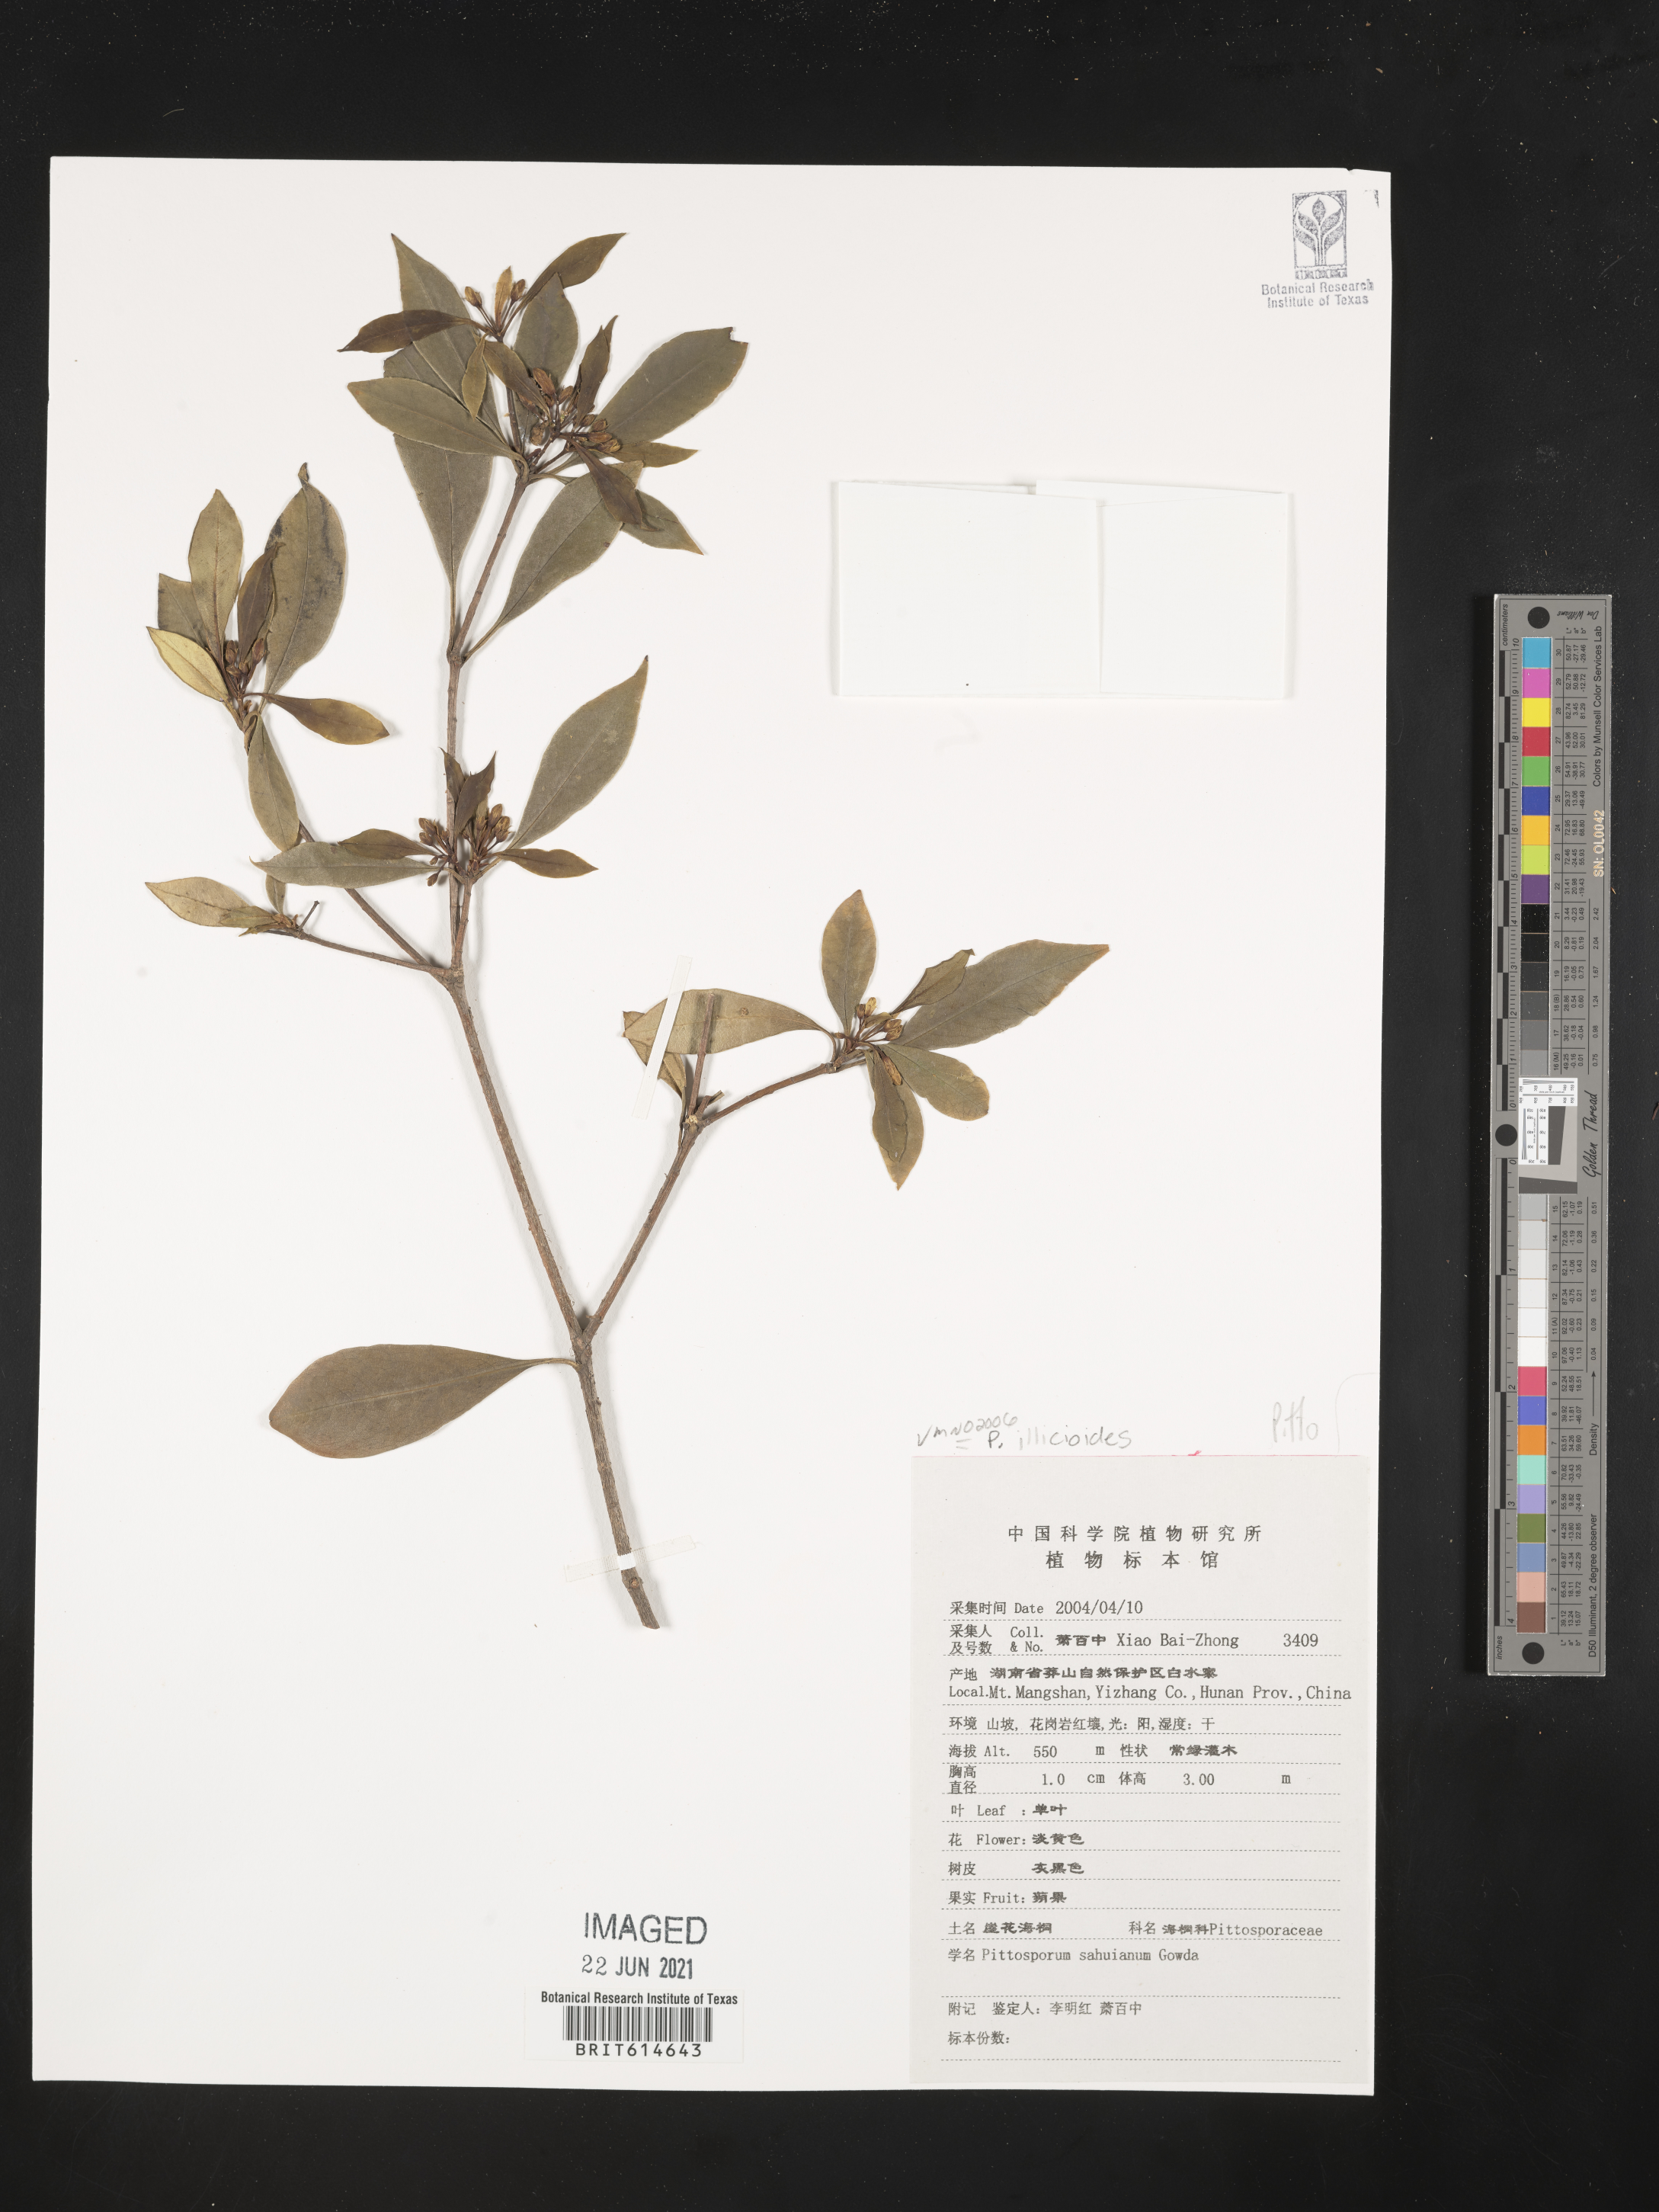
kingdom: Plantae
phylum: Tracheophyta
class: Magnoliopsida
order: Apiales
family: Pittosporaceae
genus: Pittosporum
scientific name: Pittosporum illicioides
